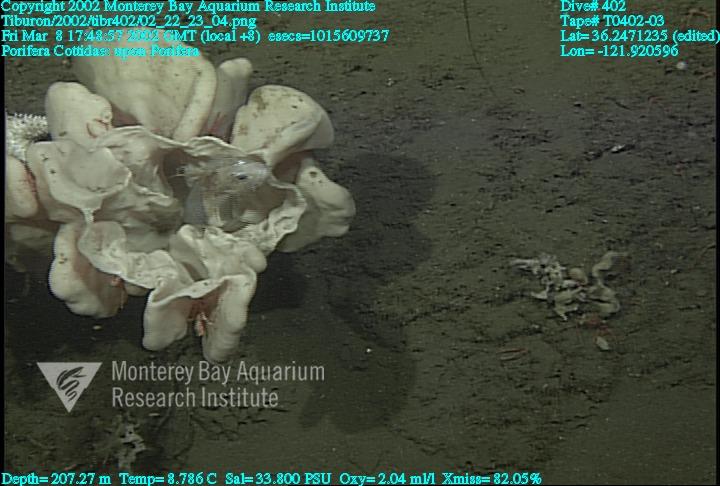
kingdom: Animalia
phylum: Porifera
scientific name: Porifera
